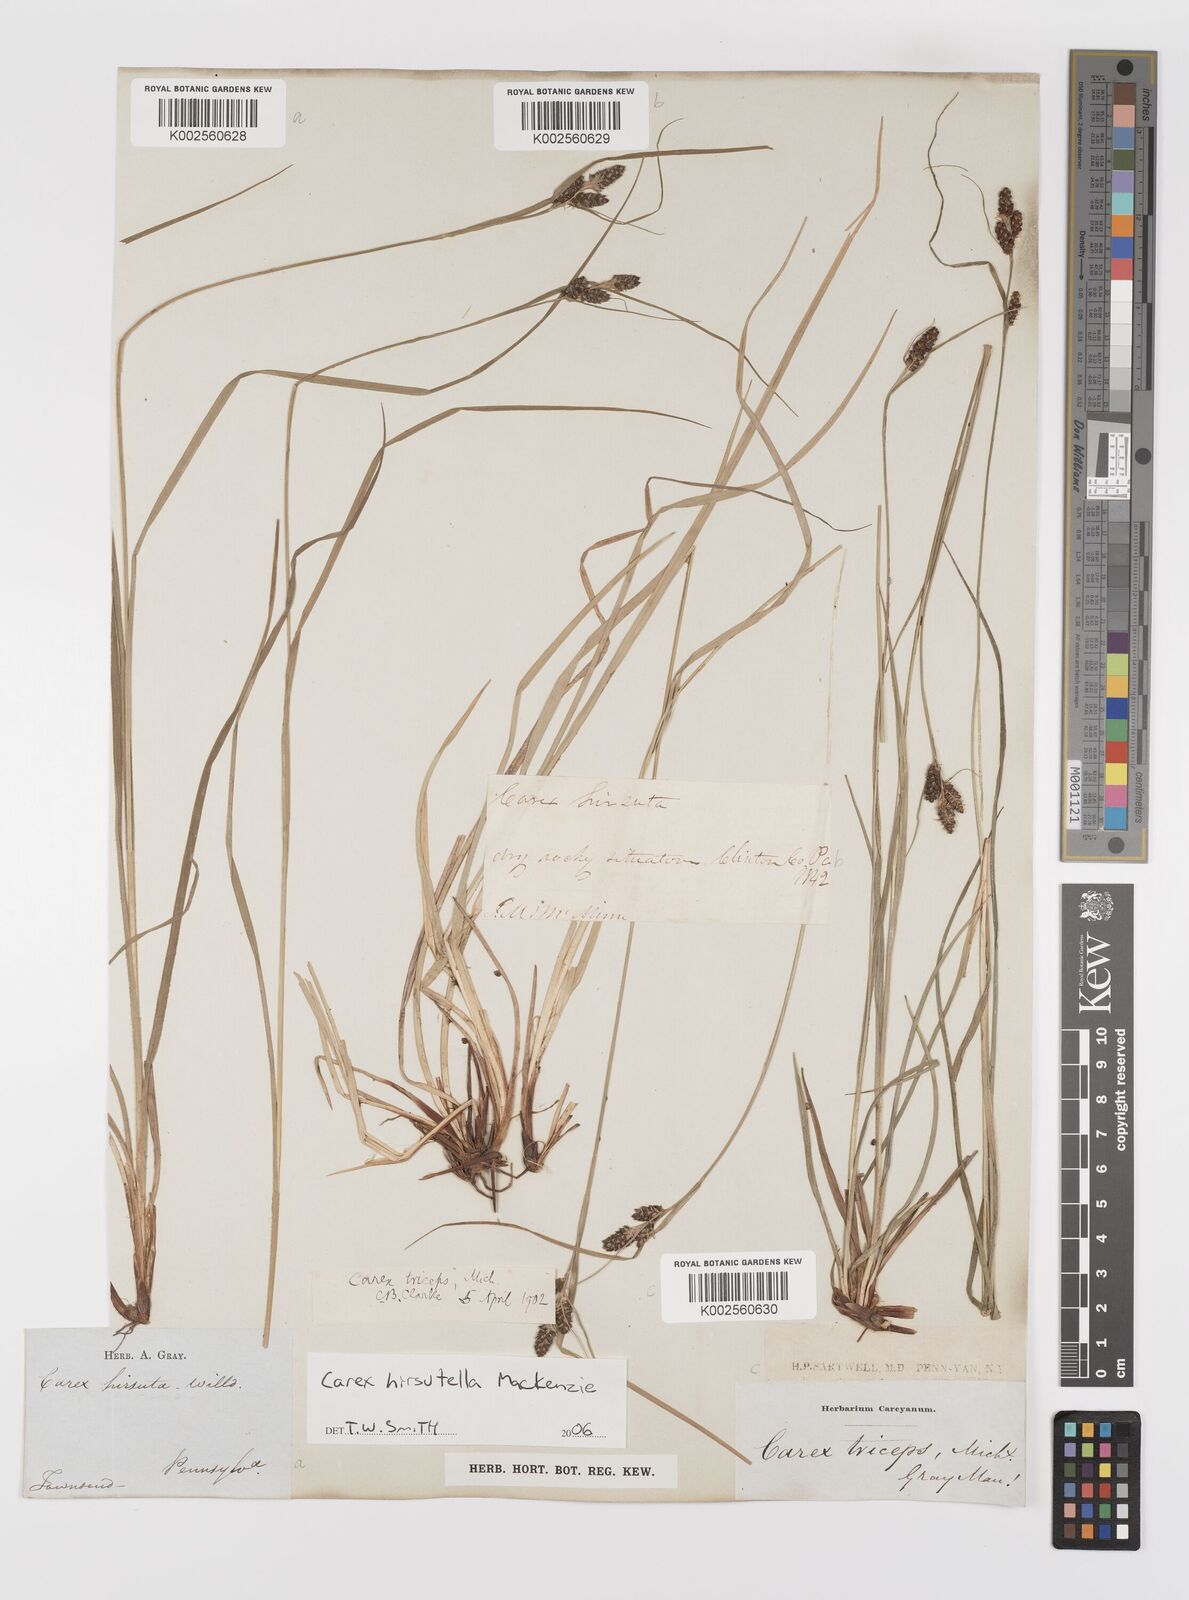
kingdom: Plantae
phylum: Tracheophyta
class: Liliopsida
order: Poales
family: Cyperaceae
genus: Carex
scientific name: Carex hirsutella
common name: Fuzzy wuzzy sedge
